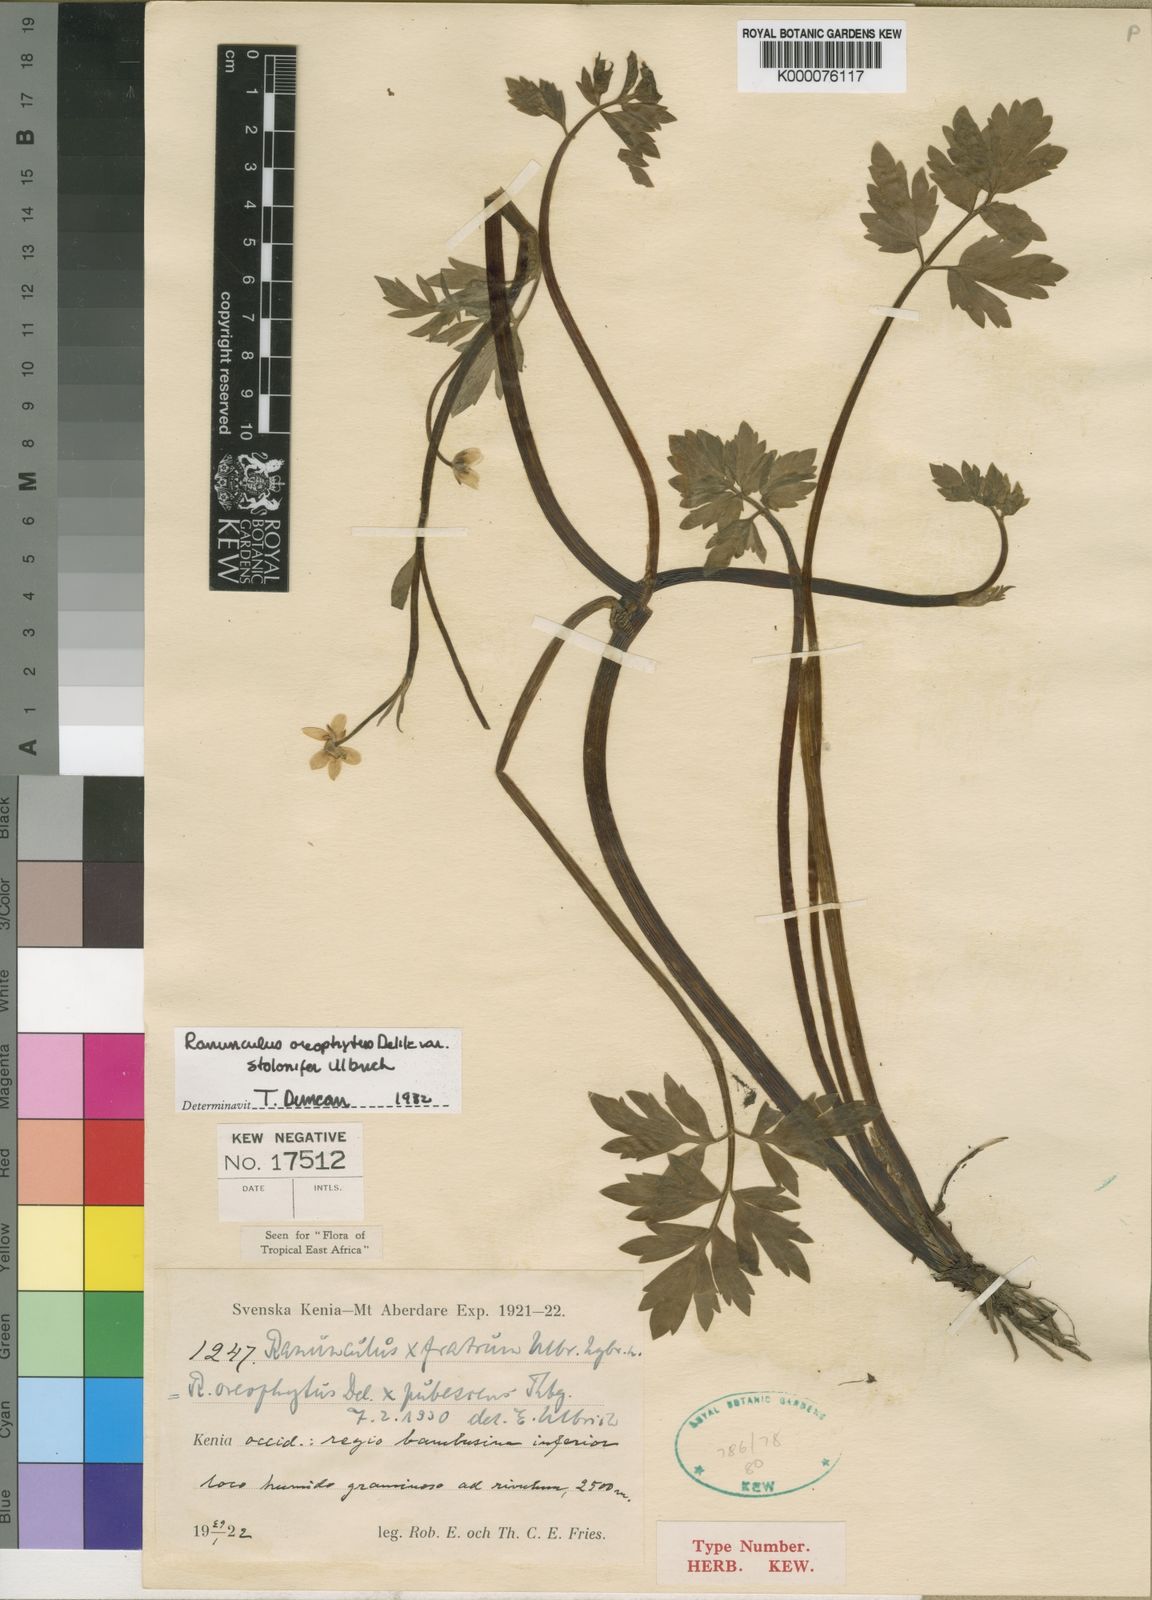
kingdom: Plantae
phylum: Tracheophyta
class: Magnoliopsida
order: Ranunculales
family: Ranunculaceae
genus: Ranunculus
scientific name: Ranunculus oreophytus
